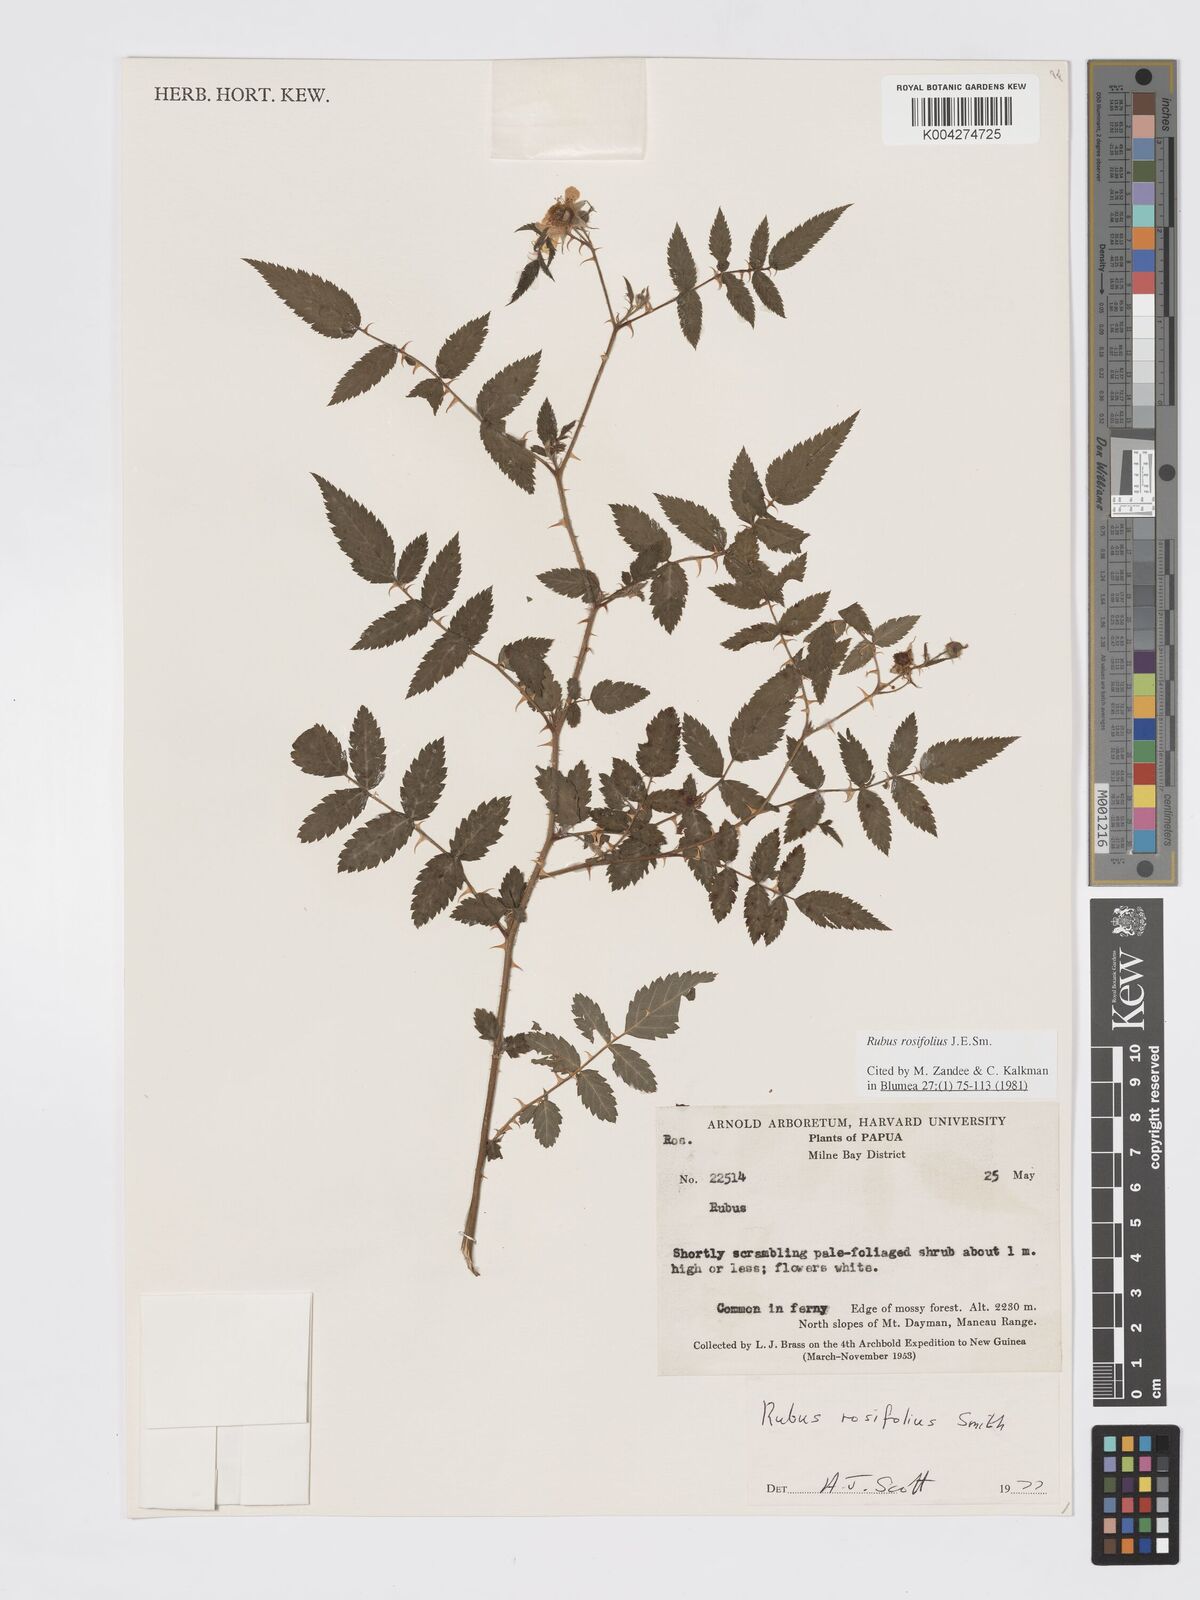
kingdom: Plantae
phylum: Tracheophyta
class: Magnoliopsida
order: Rosales
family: Rosaceae
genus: Rubus
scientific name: Rubus
